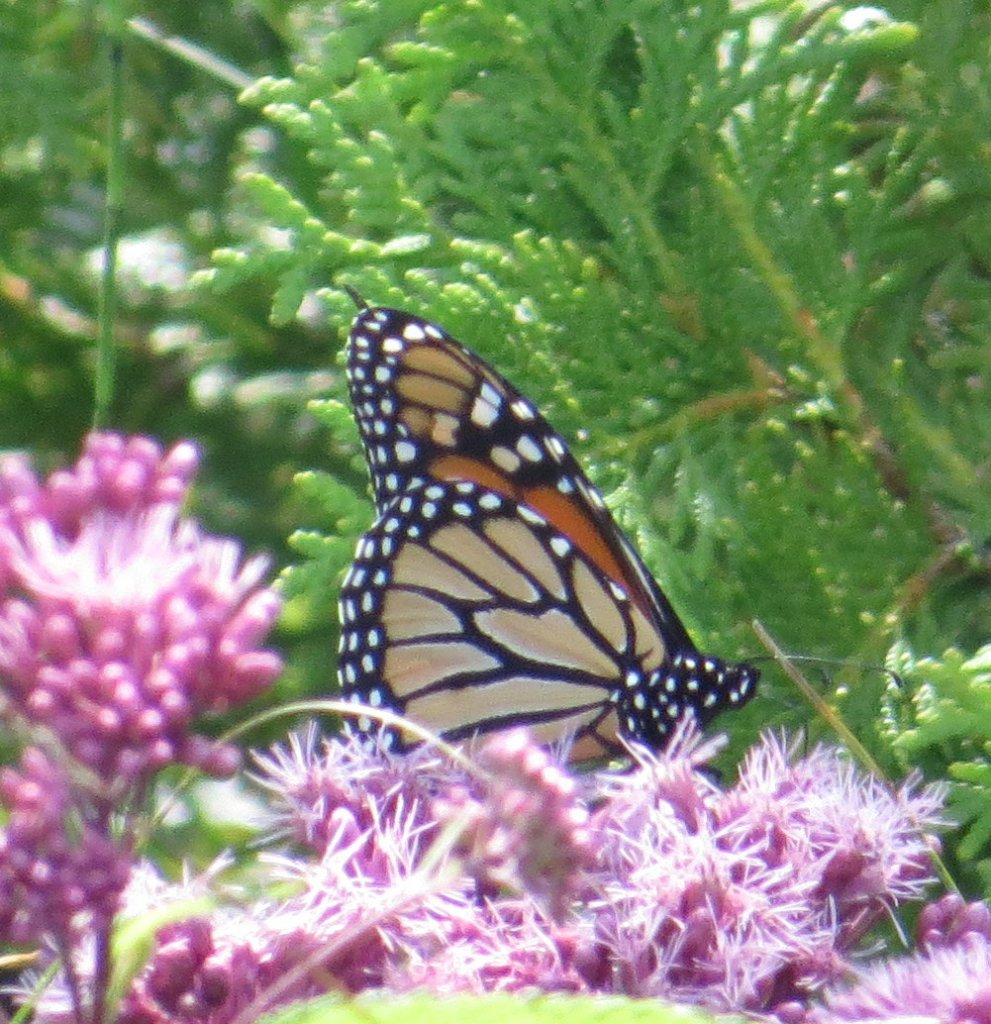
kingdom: Animalia
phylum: Arthropoda
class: Insecta
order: Lepidoptera
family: Nymphalidae
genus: Danaus
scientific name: Danaus plexippus
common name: Monarch
